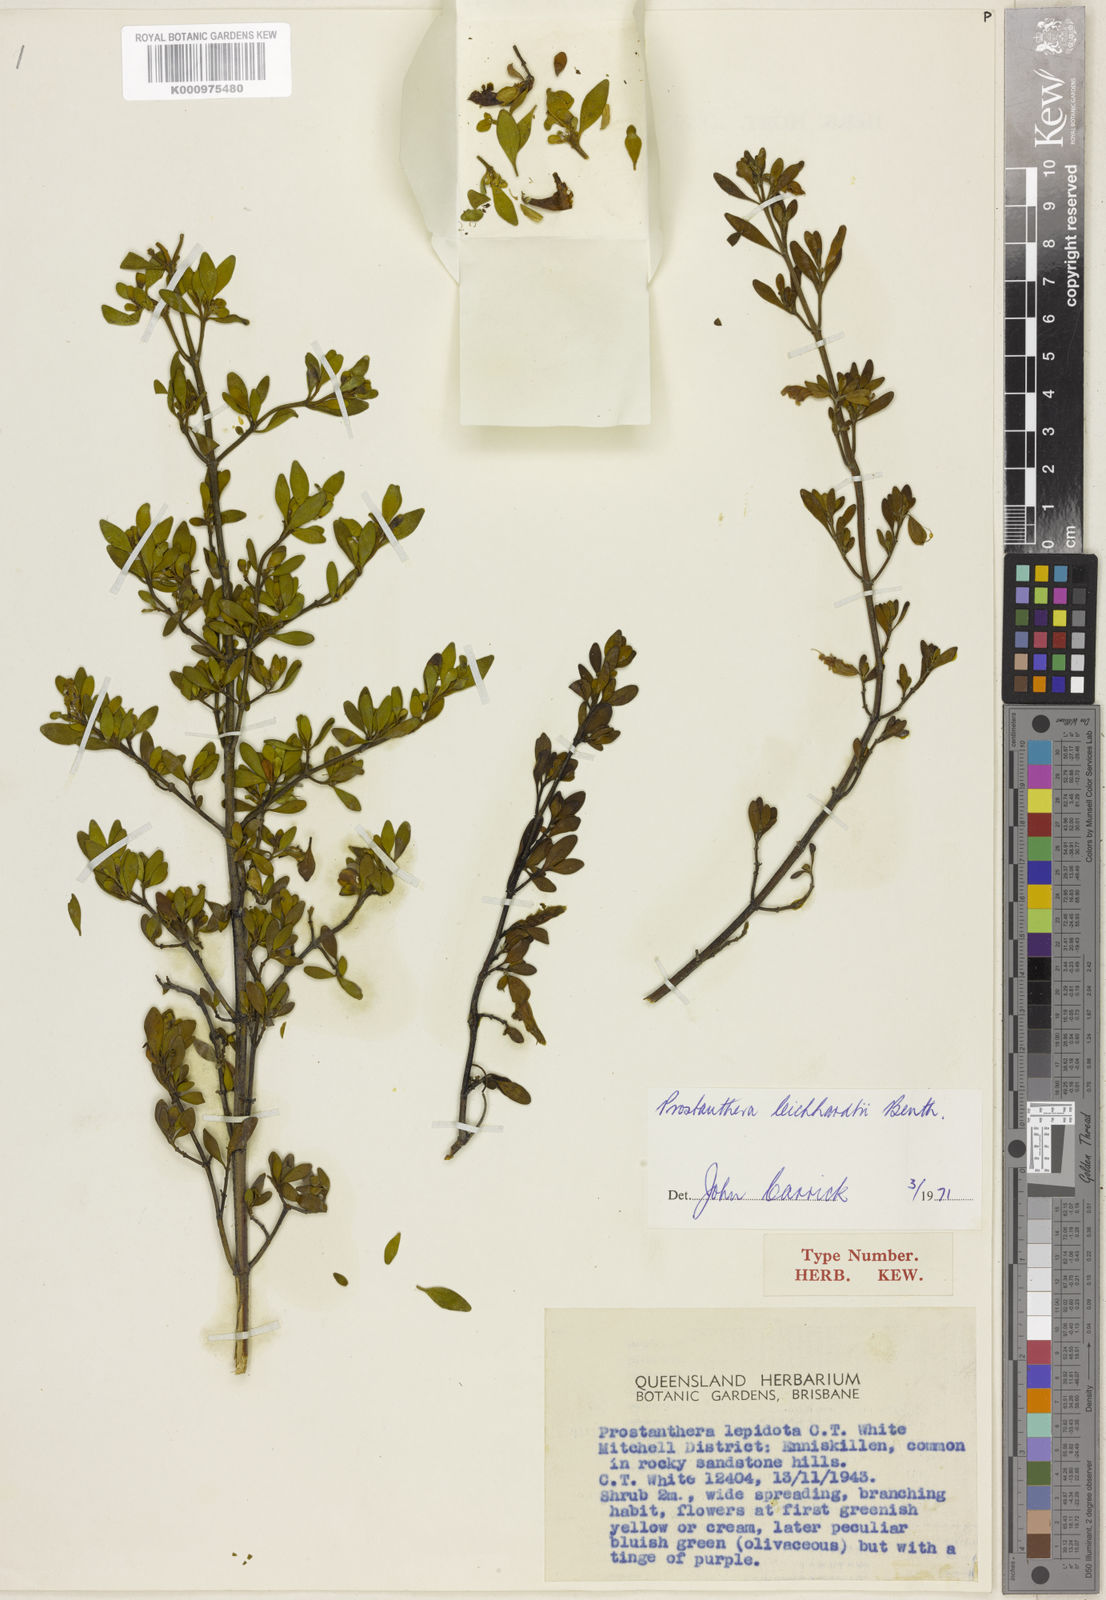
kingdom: Plantae
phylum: Tracheophyta
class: Magnoliopsida
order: Lamiales
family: Lamiaceae
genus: Prostanthera
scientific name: Prostanthera ringens
